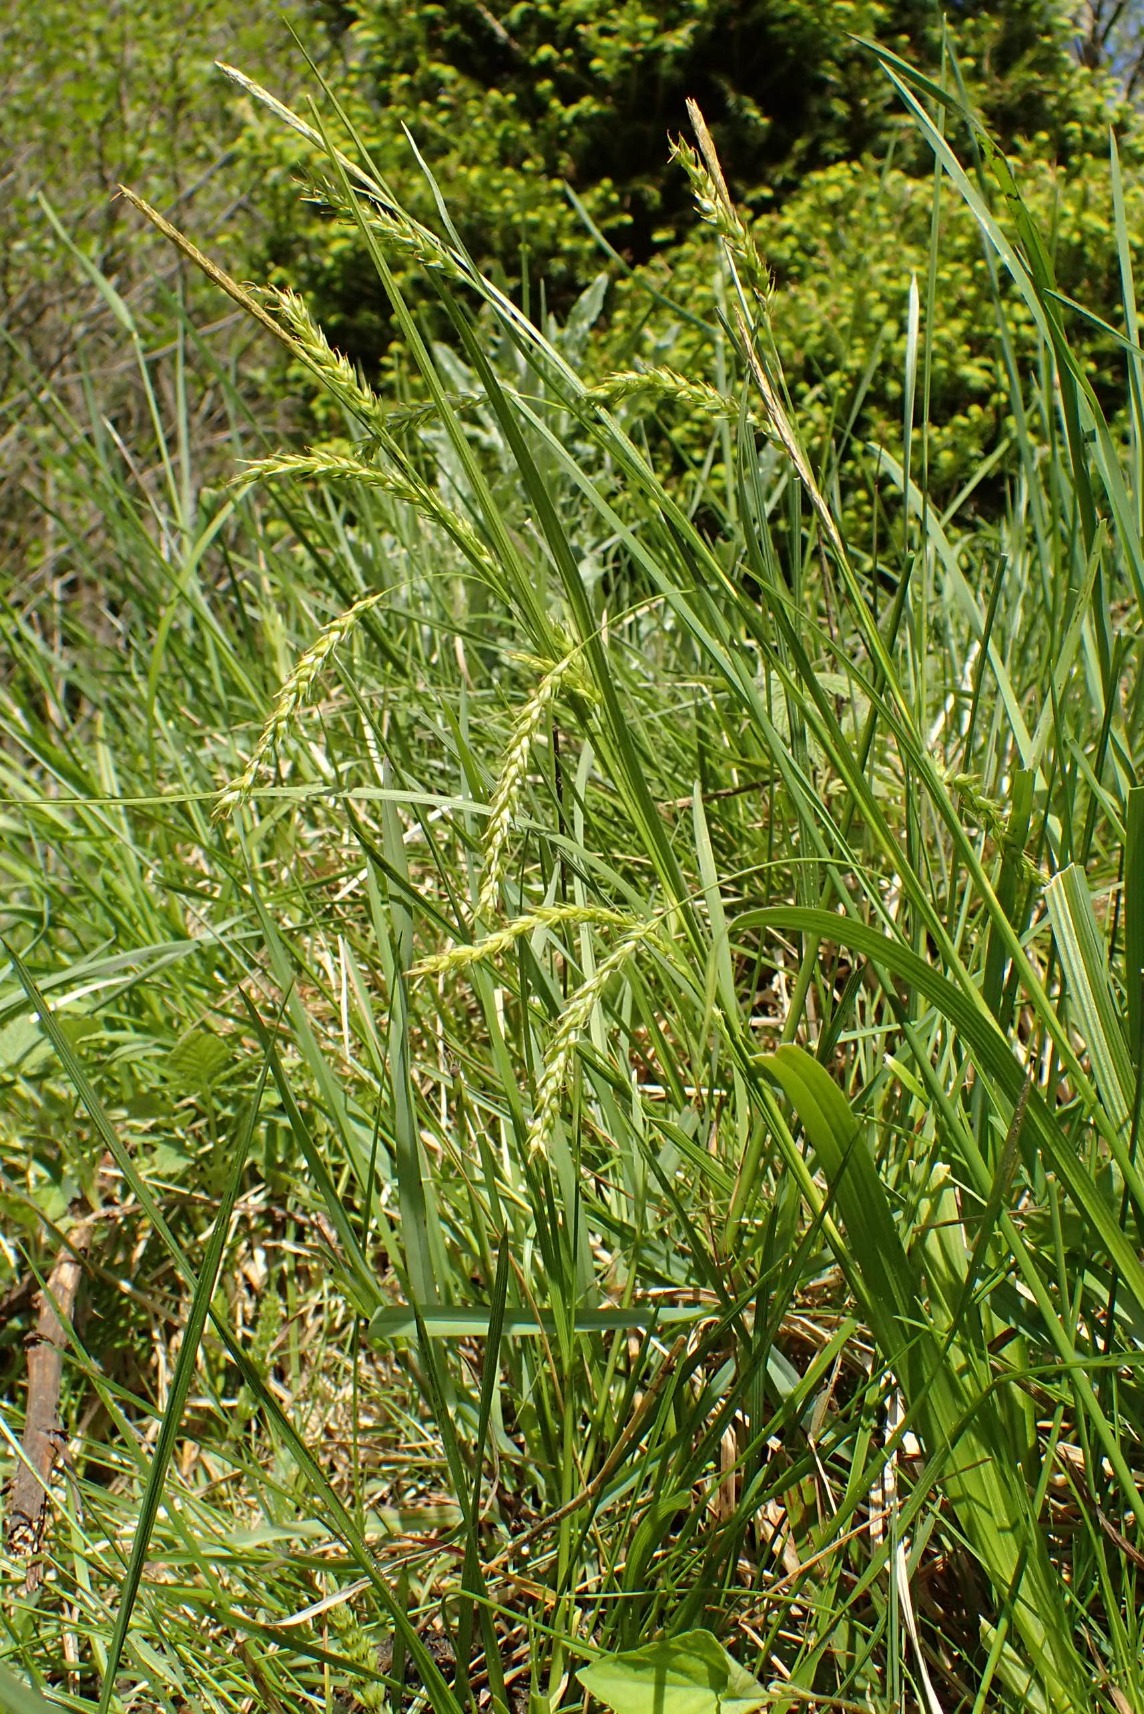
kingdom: Plantae
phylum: Tracheophyta
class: Liliopsida
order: Poales
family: Cyperaceae
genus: Carex
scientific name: Carex sylvatica
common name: Skov-star
